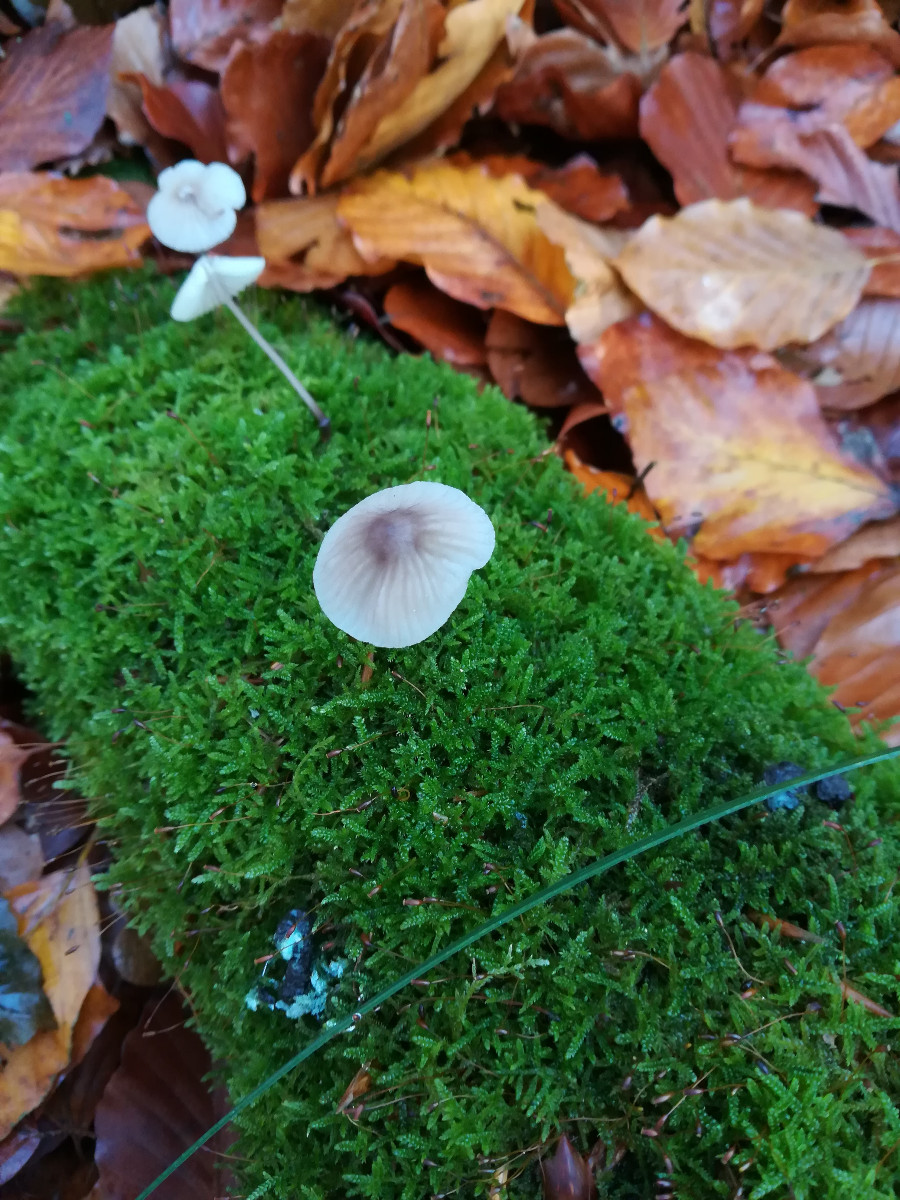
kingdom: Fungi
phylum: Basidiomycota
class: Agaricomycetes
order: Agaricales
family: Mycenaceae
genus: Mycena
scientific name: Mycena galopus
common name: hvidmælket huesvamp
